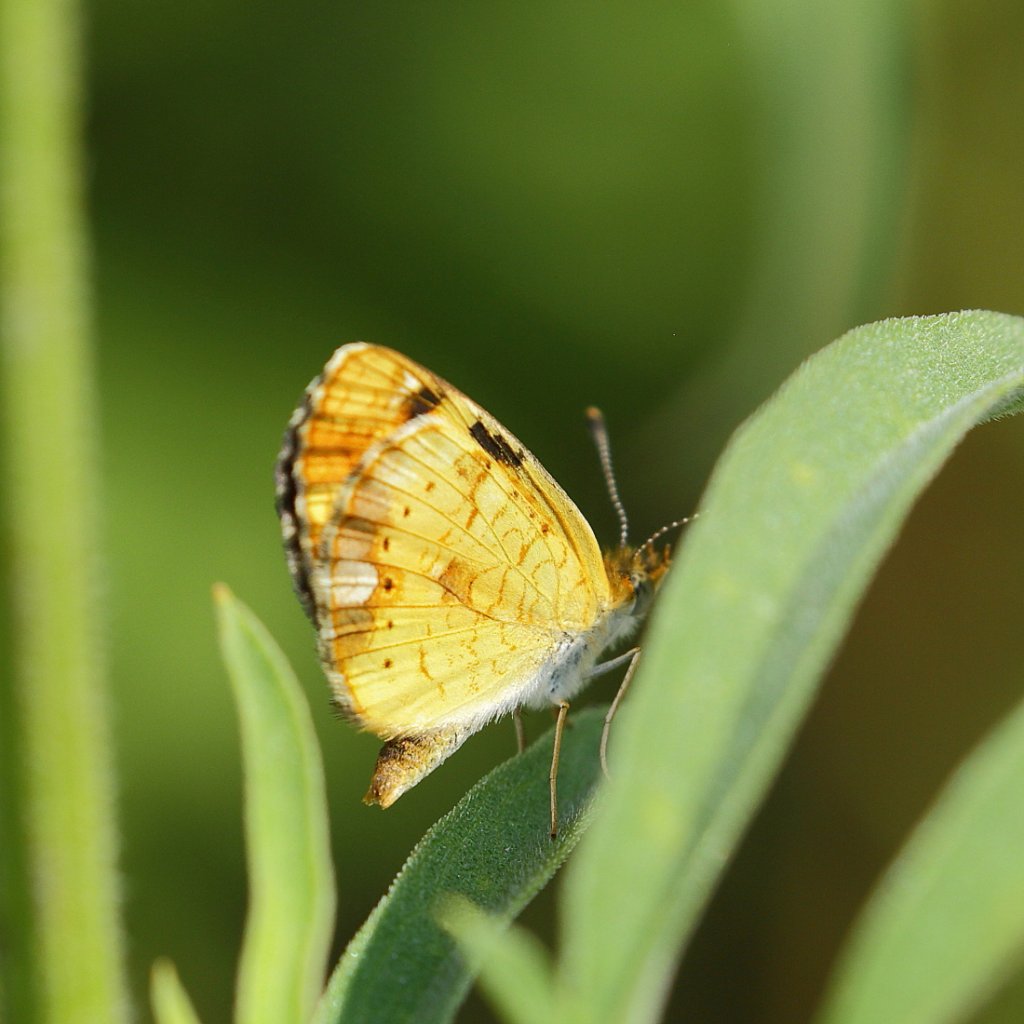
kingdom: Animalia
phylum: Arthropoda
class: Insecta
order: Lepidoptera
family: Nymphalidae
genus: Phyciodes
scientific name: Phyciodes tharos
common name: Pearl Crescent
